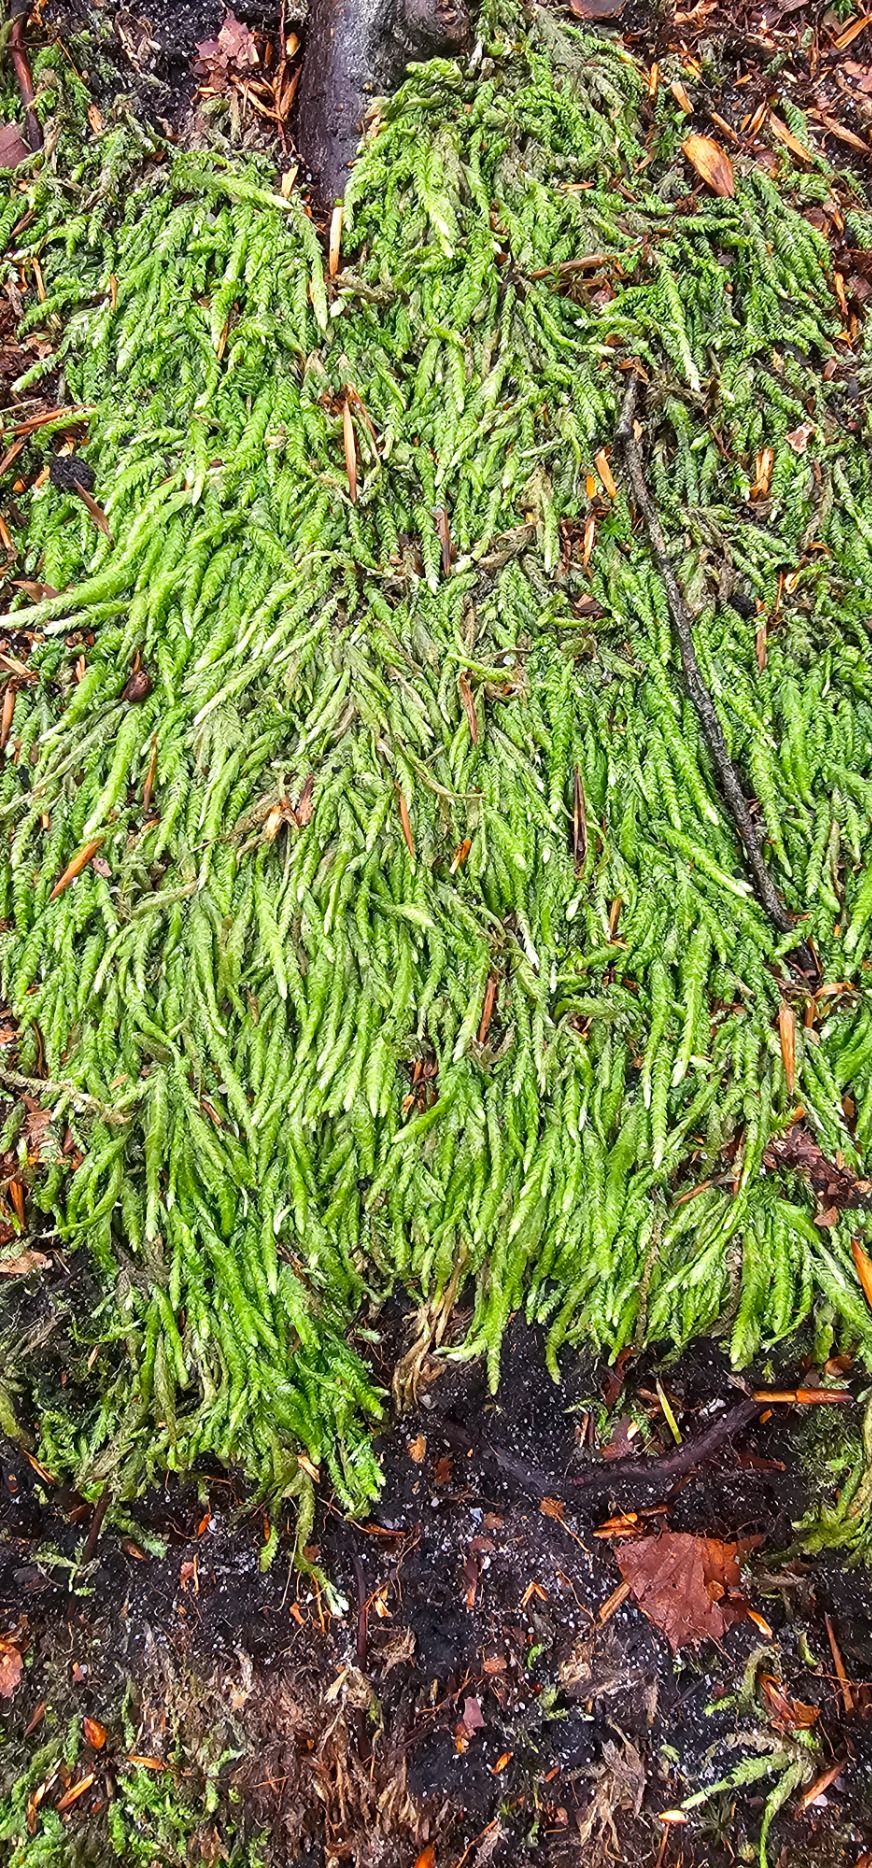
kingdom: Plantae
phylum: Bryophyta
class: Bryopsida
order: Hypnales
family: Plagiotheciaceae
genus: Plagiothecium
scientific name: Plagiothecium undulatum
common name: Bølget tæppemos
